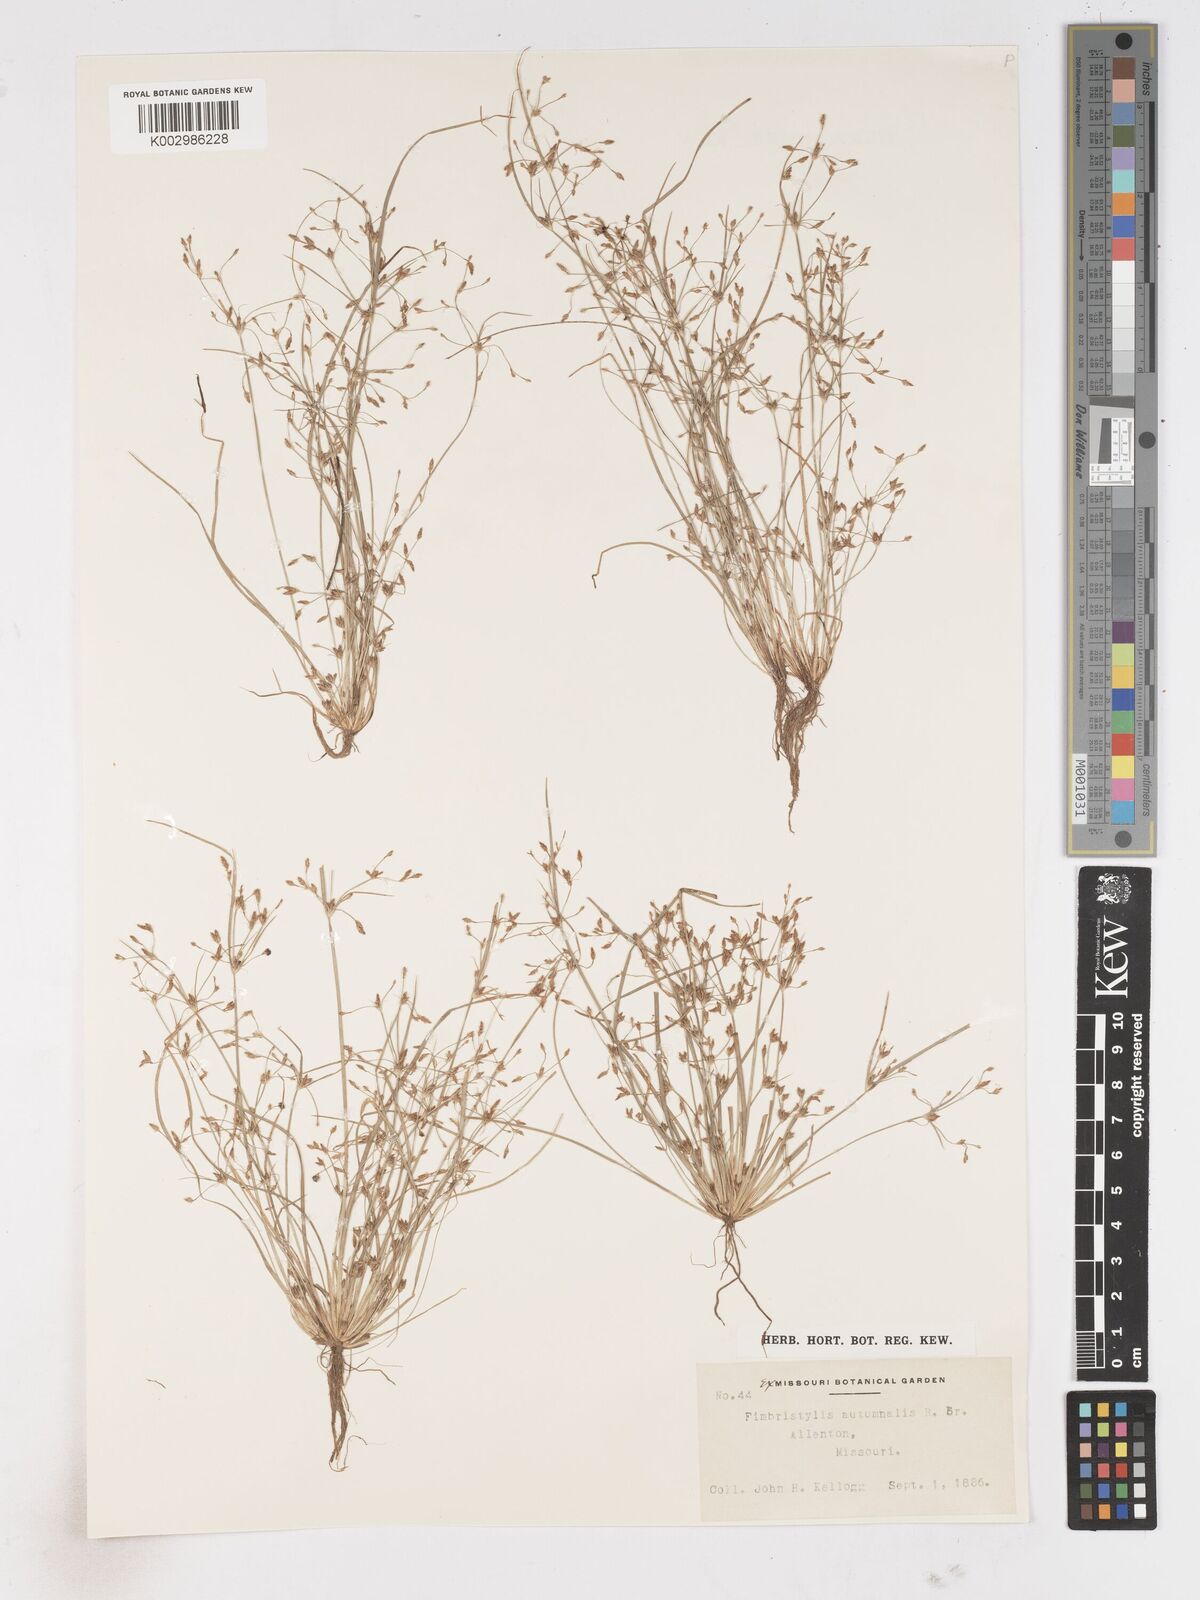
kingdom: Plantae
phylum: Tracheophyta
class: Liliopsida
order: Poales
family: Cyperaceae
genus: Fimbristylis
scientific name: Fimbristylis autumnalis
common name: Slender fimbristylis
